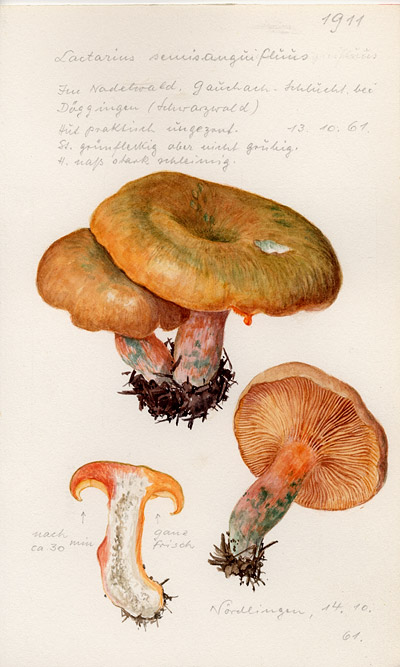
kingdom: Fungi
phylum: Basidiomycota
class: Agaricomycetes
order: Russulales
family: Russulaceae
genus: Lactarius
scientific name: Lactarius semisanguifluus
